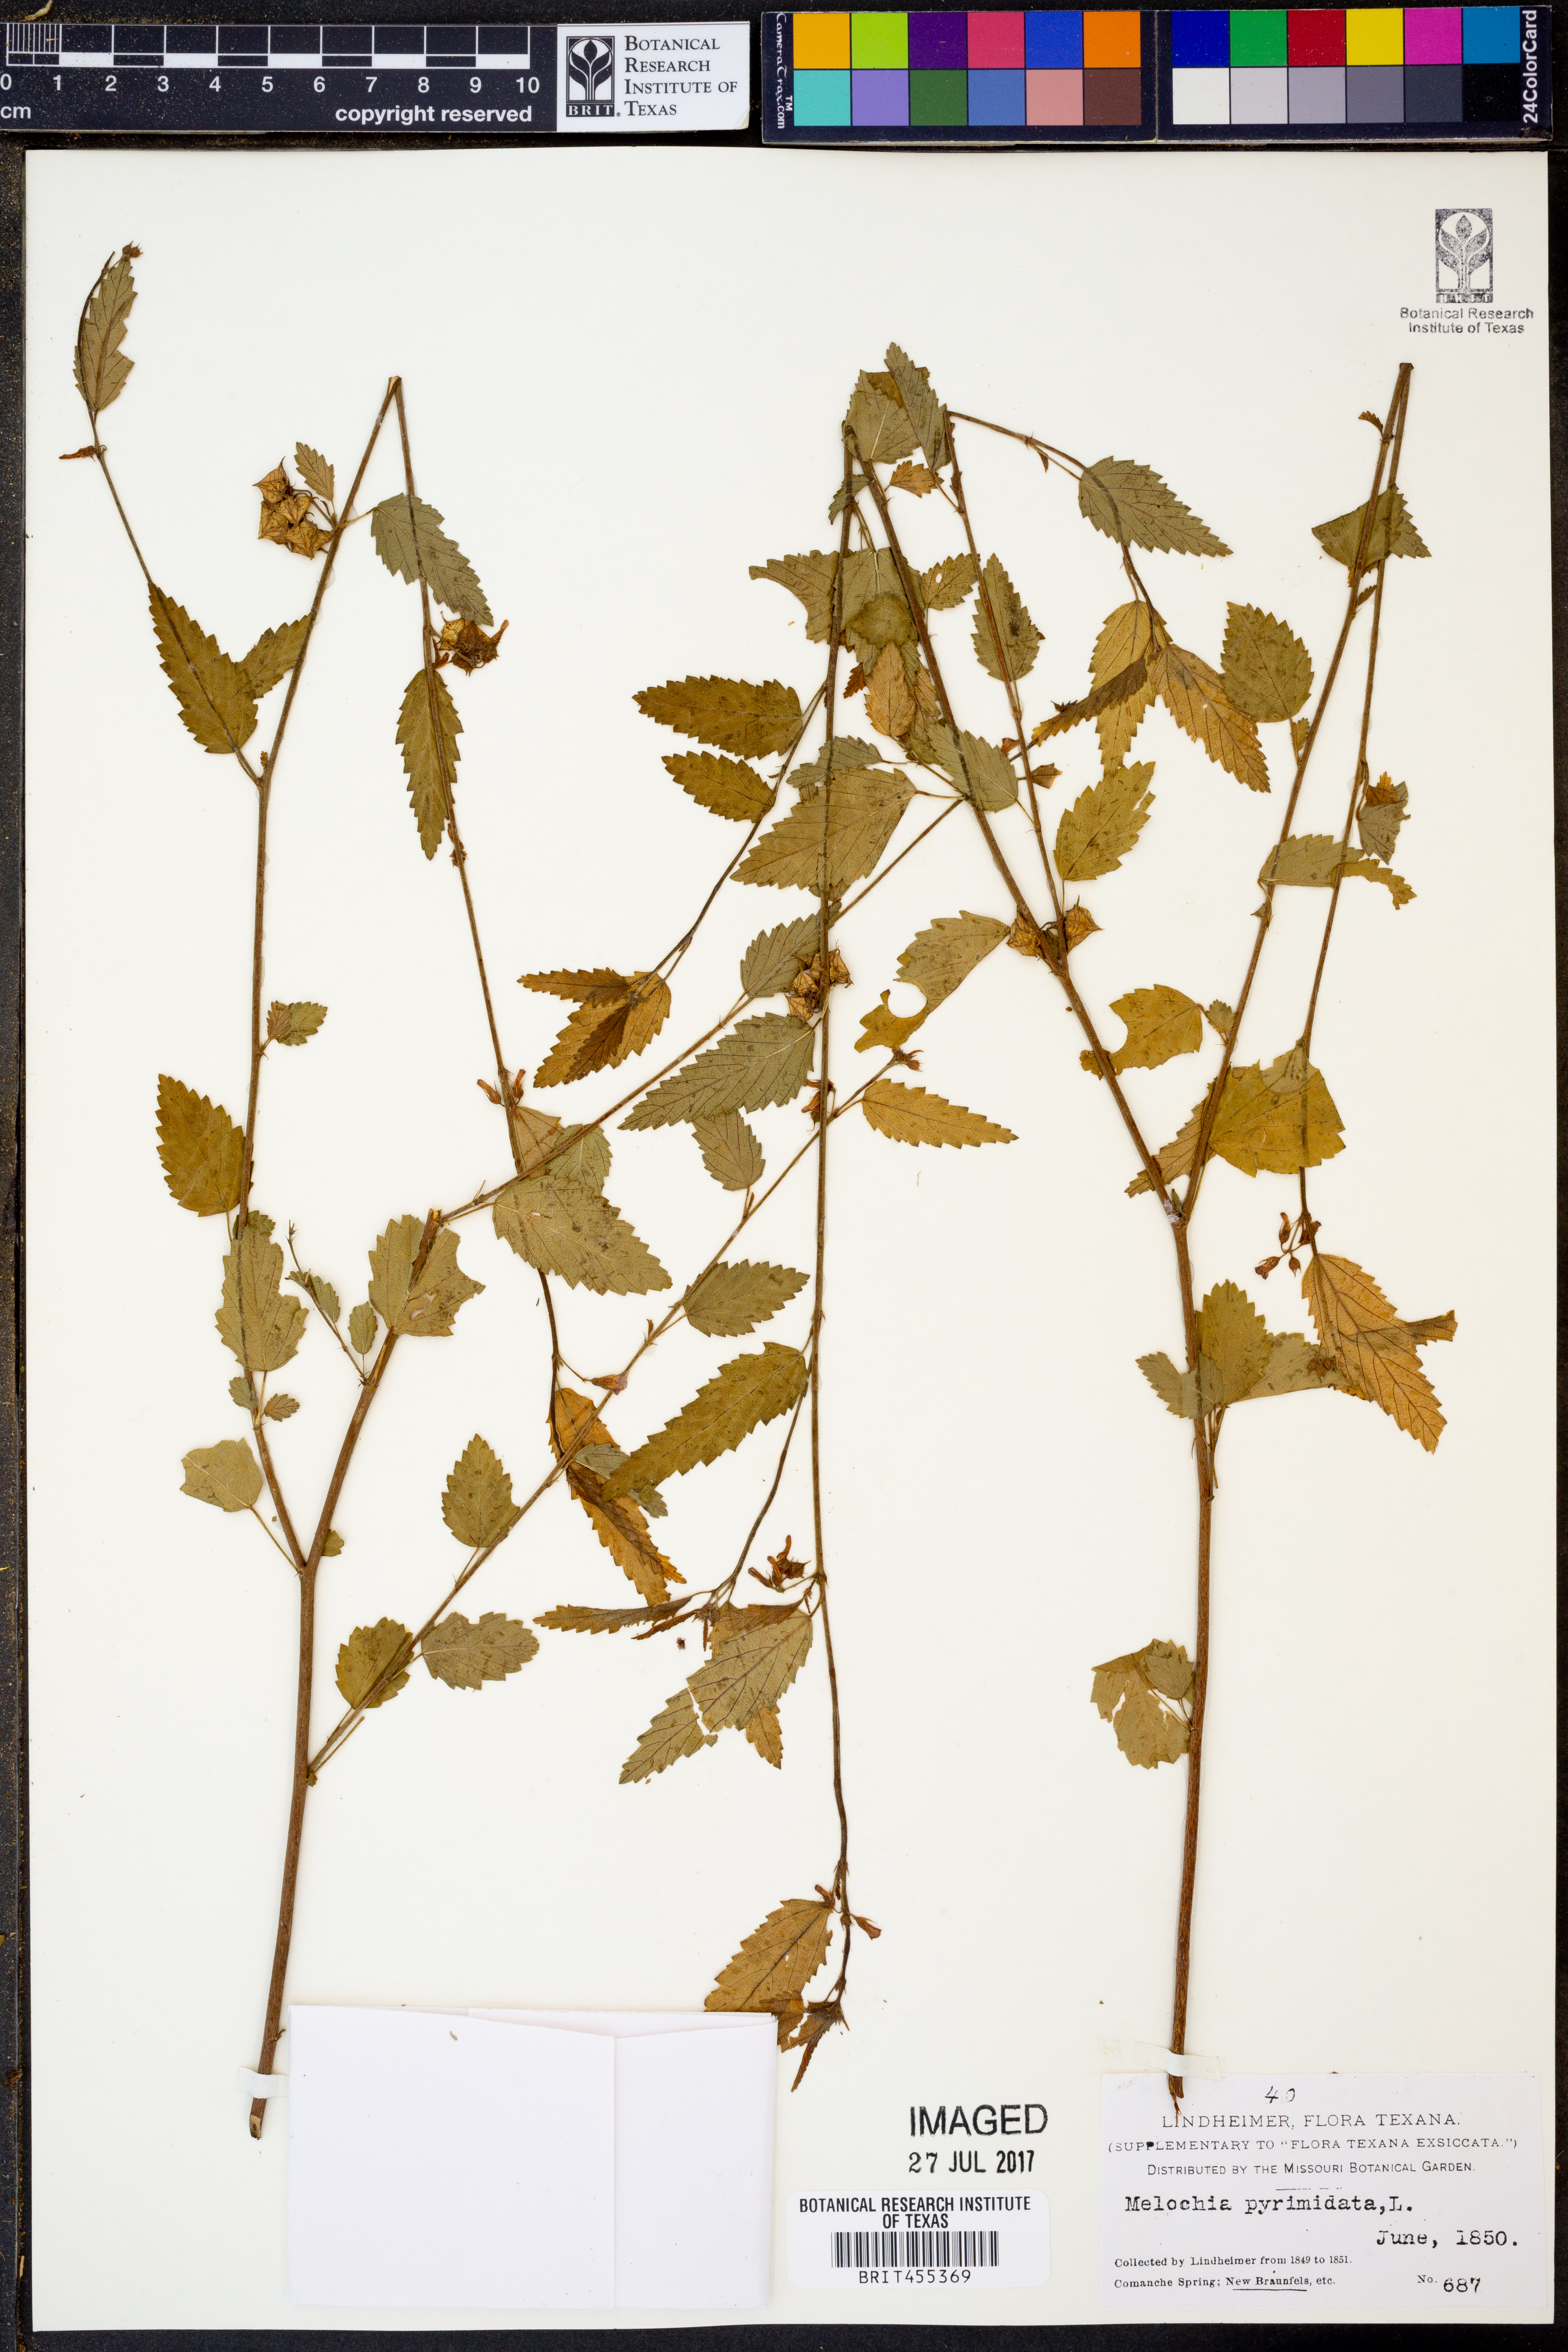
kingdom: Plantae
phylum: Tracheophyta
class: Magnoliopsida
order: Malvales
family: Malvaceae
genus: Melochia
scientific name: Melochia pyramidata
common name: Pyramidflower
